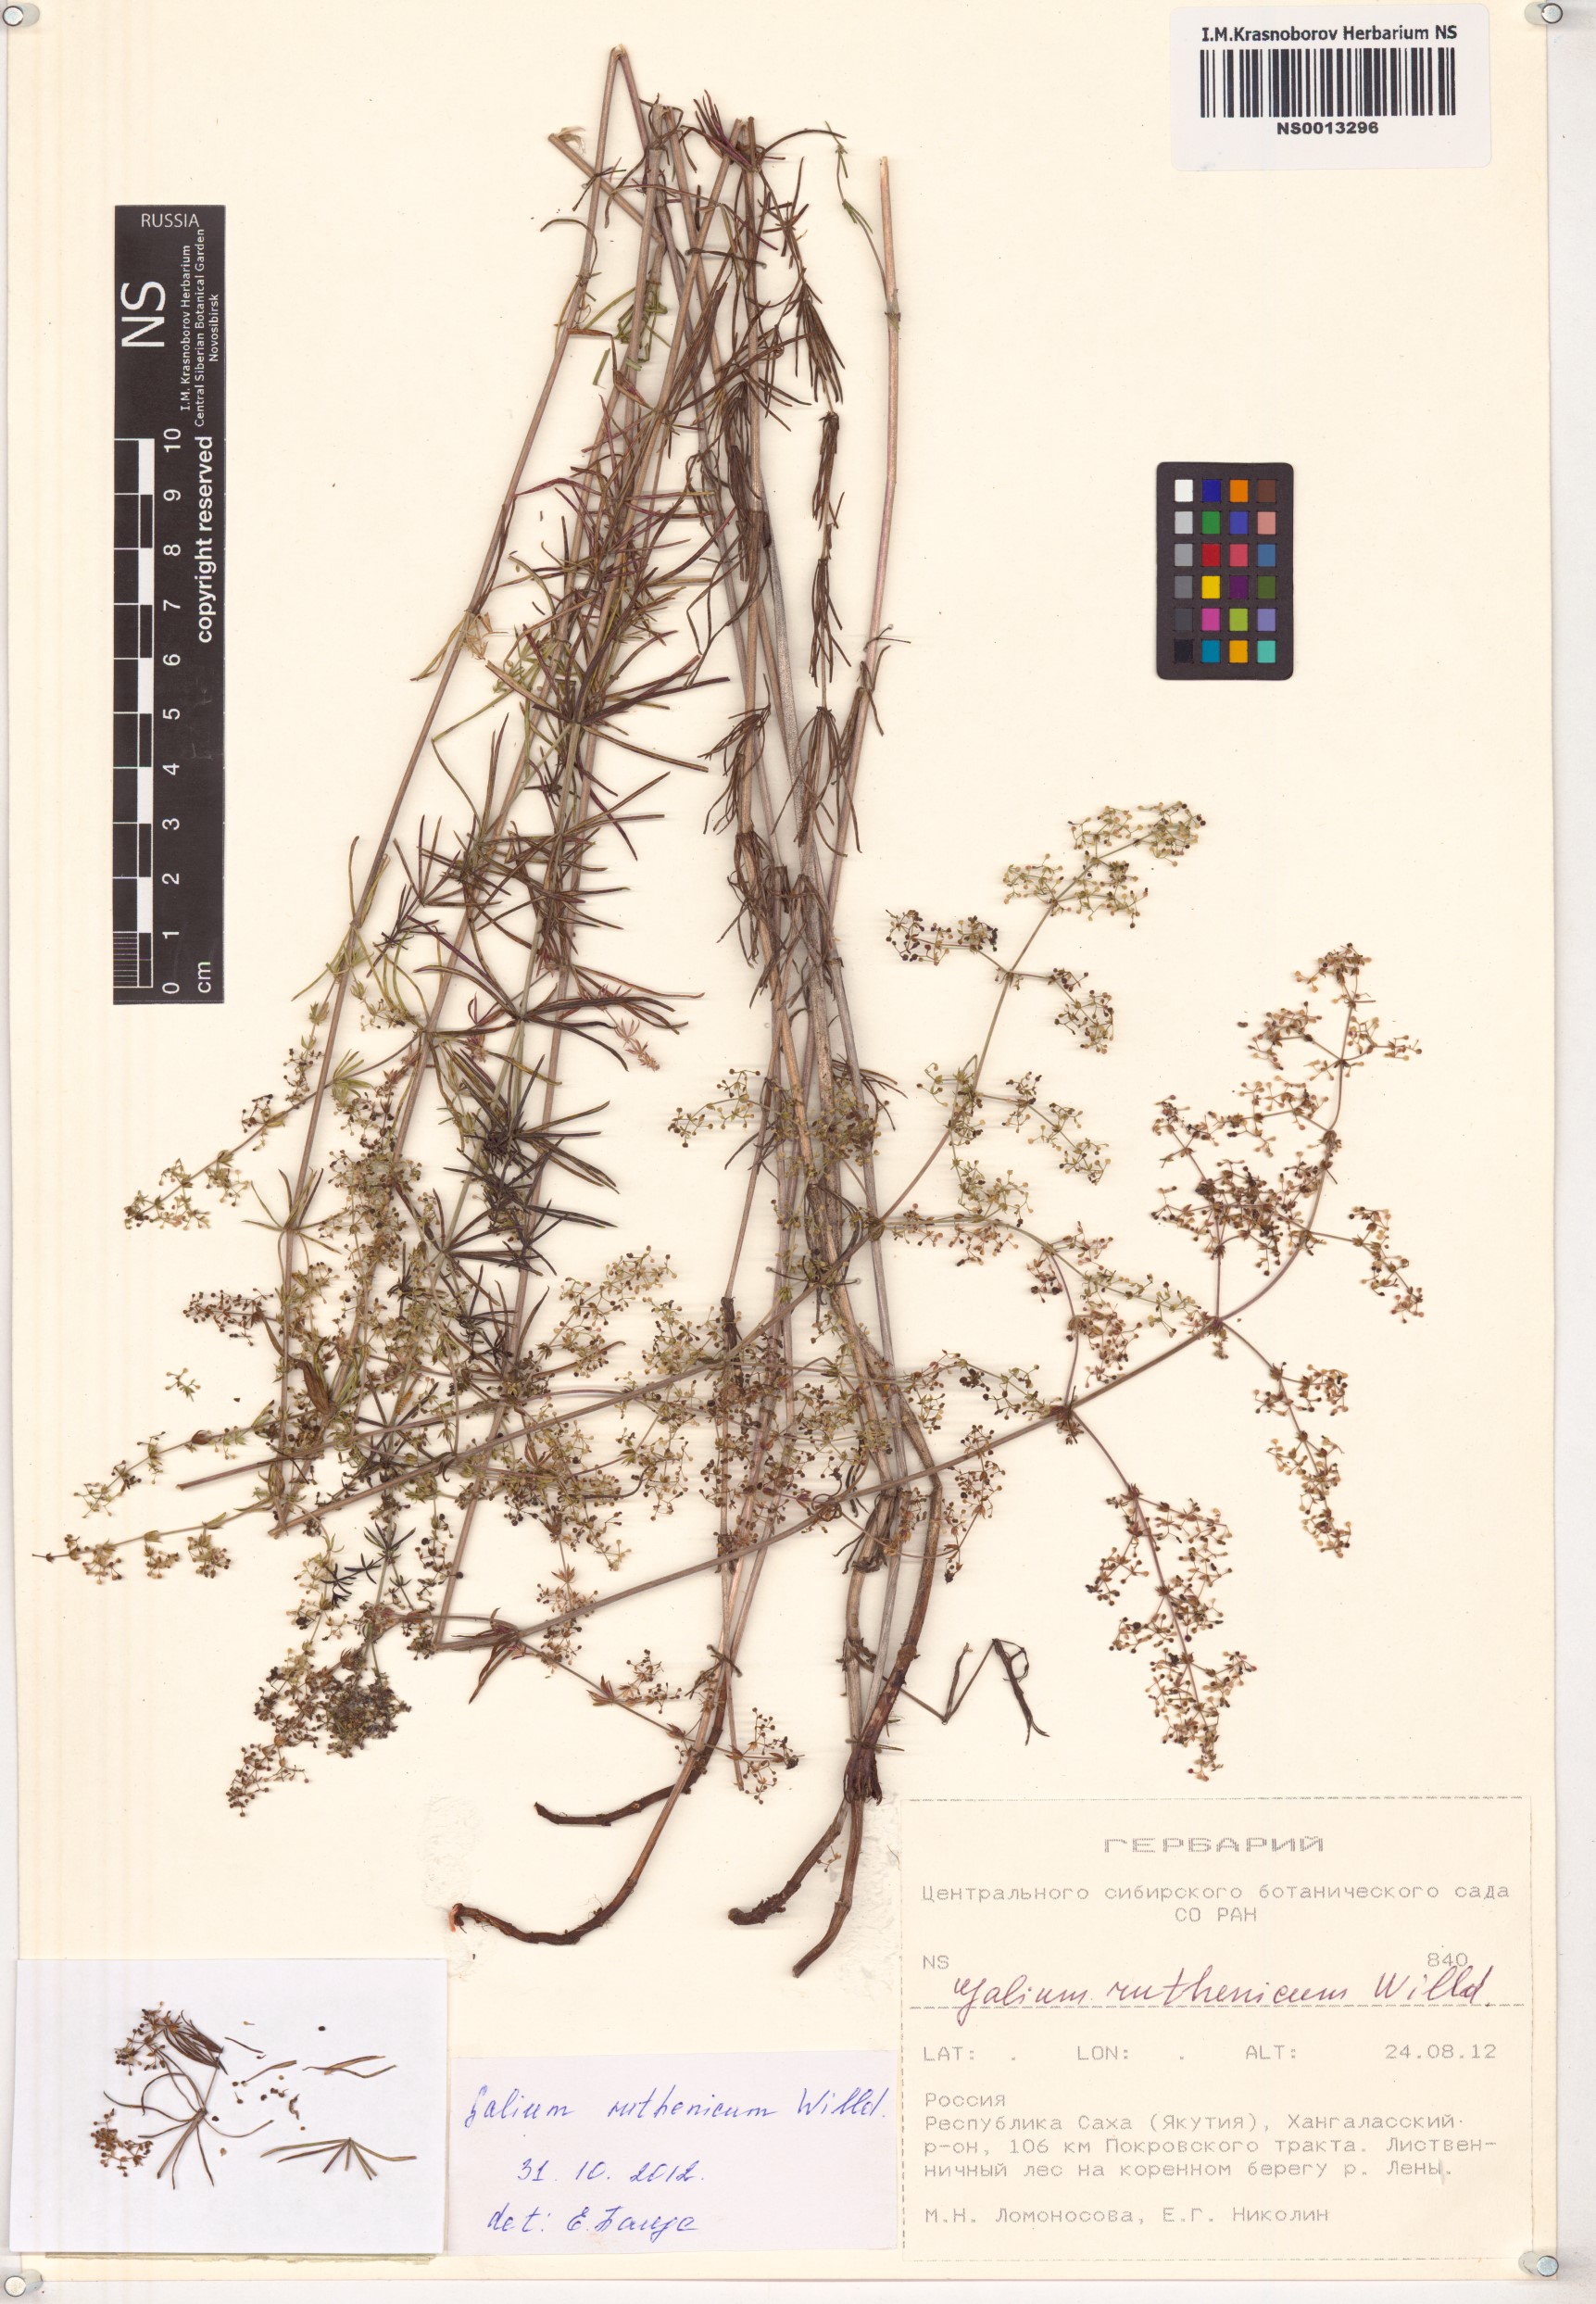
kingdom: Plantae
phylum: Tracheophyta
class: Magnoliopsida
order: Gentianales
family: Rubiaceae
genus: Galium
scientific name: Galium verum
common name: Lady's bedstraw
